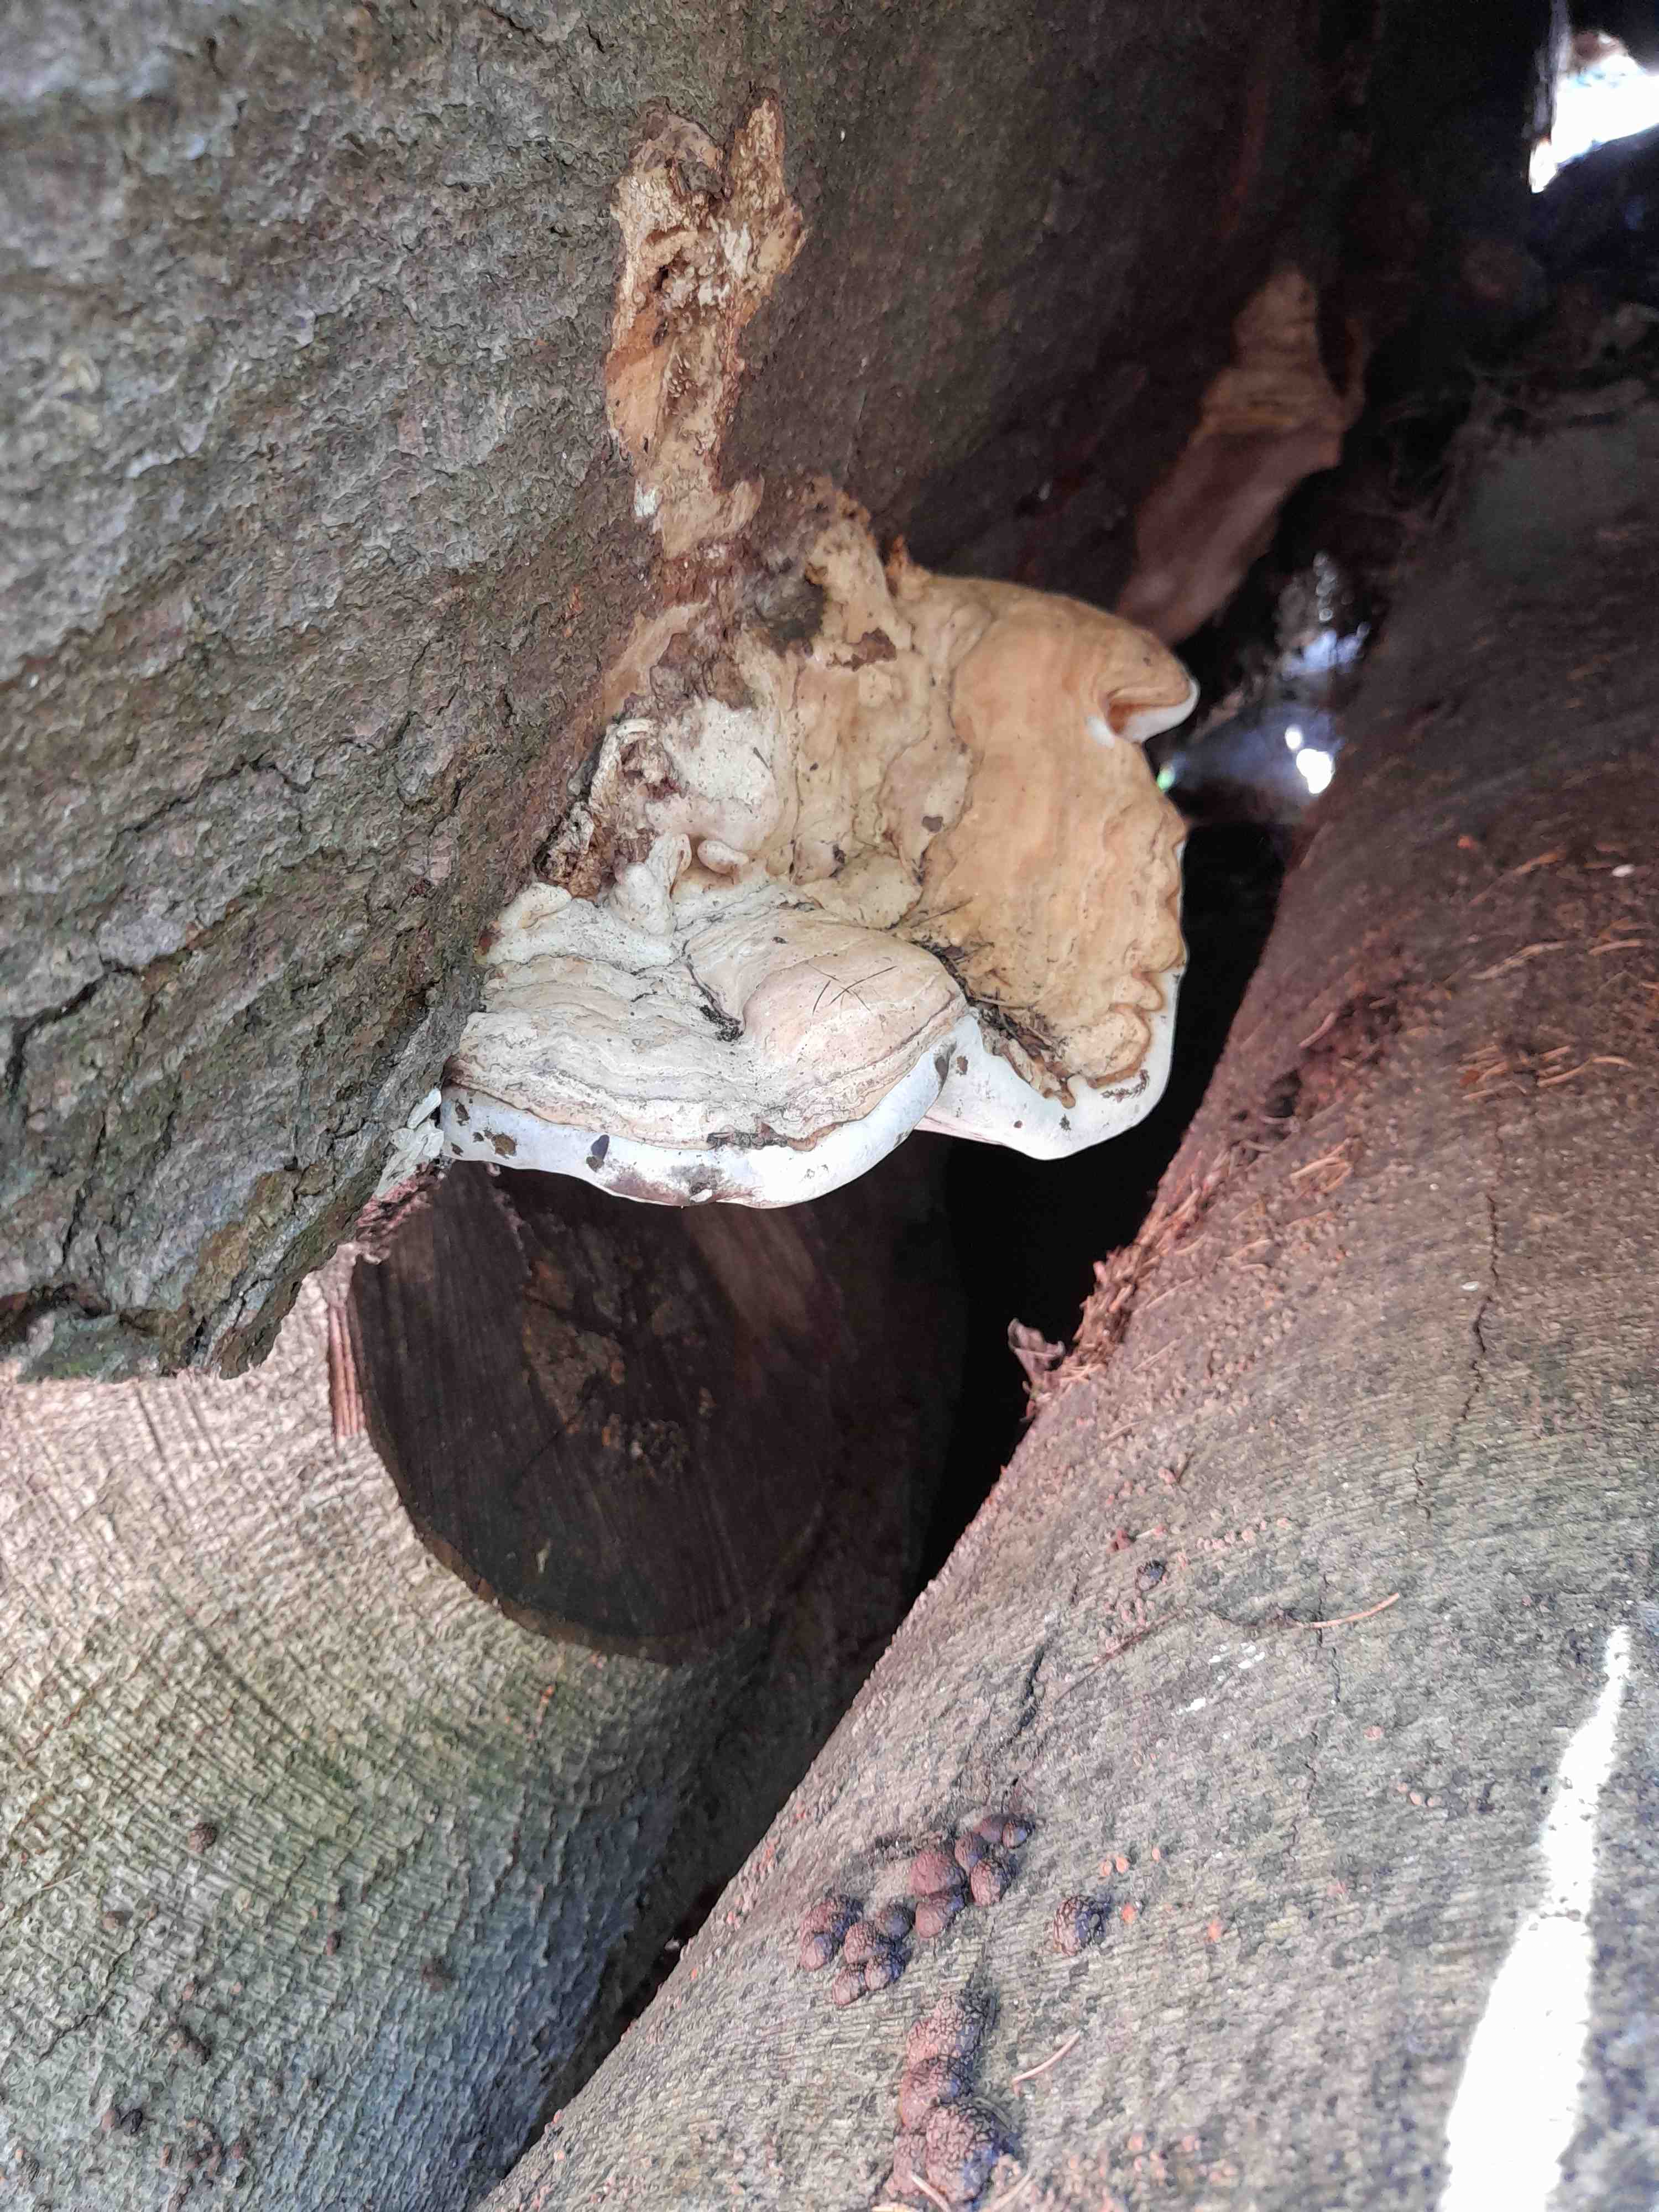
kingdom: Fungi
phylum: Basidiomycota
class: Agaricomycetes
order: Polyporales
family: Polyporaceae
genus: Ganoderma
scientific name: Ganoderma applanatum
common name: flad lakporesvamp
